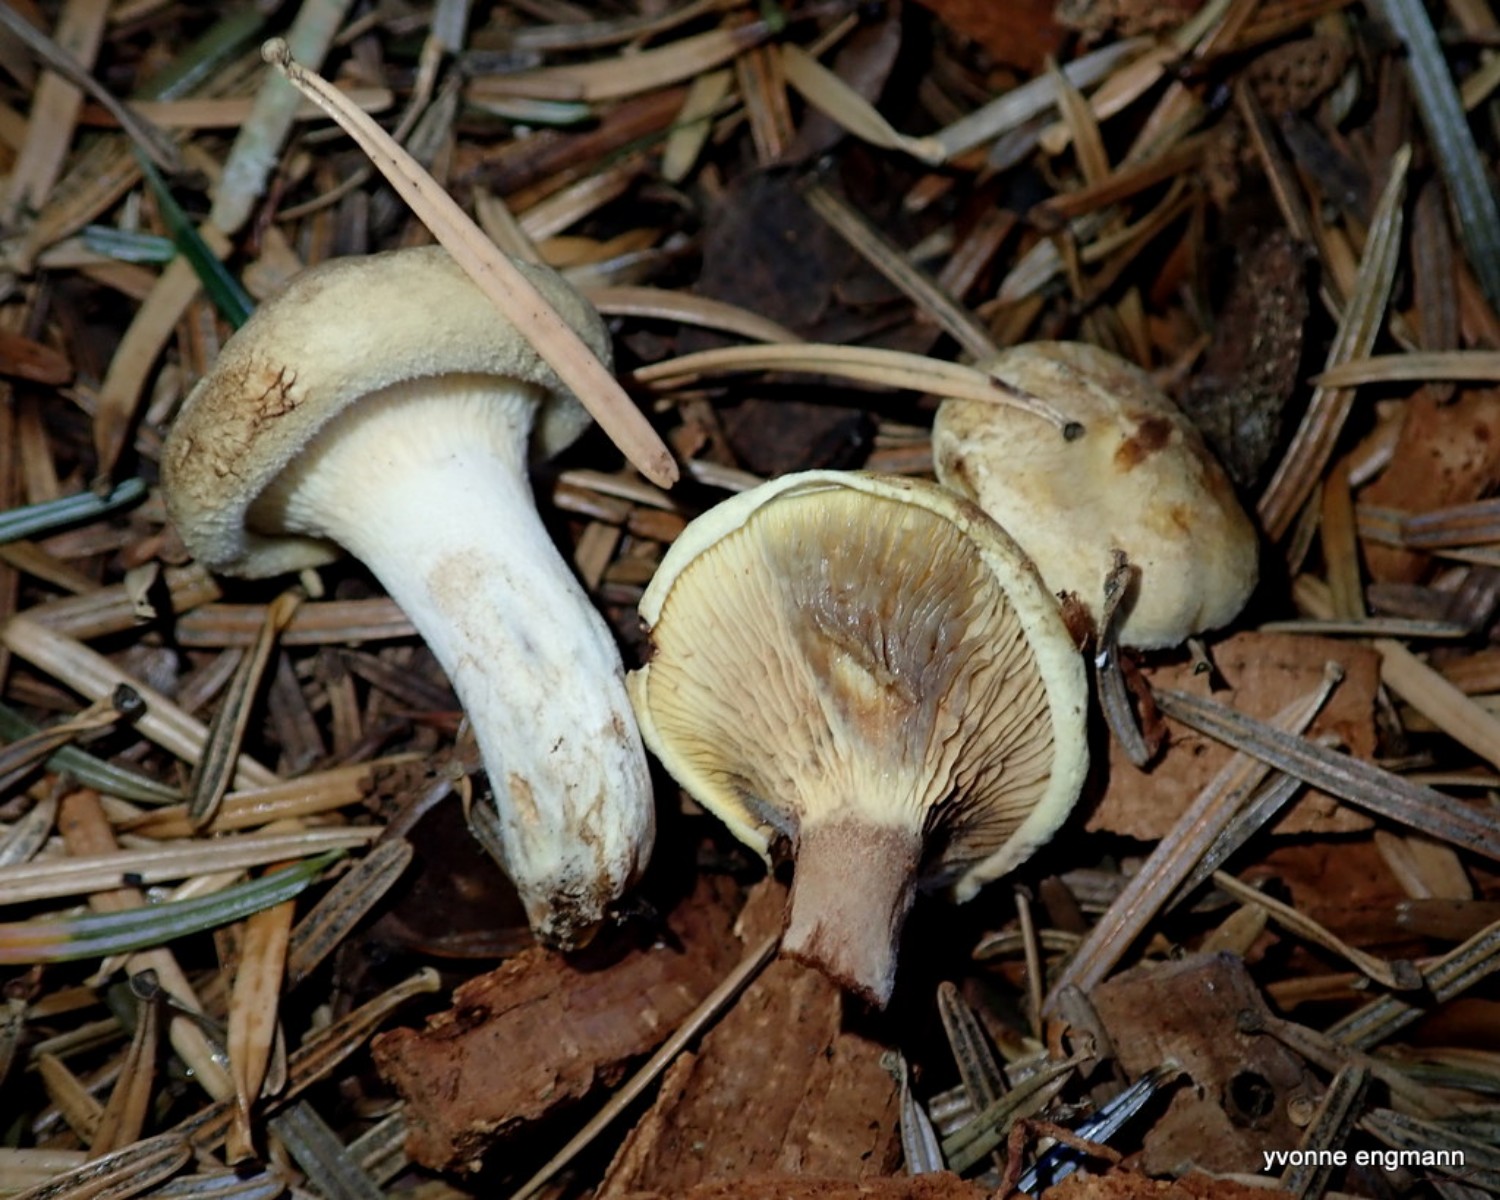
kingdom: Fungi
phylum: Basidiomycota
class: Agaricomycetes
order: Boletales
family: Paxillaceae
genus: Paxillus
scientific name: Paxillus involutus
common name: almindelig netbladhat
